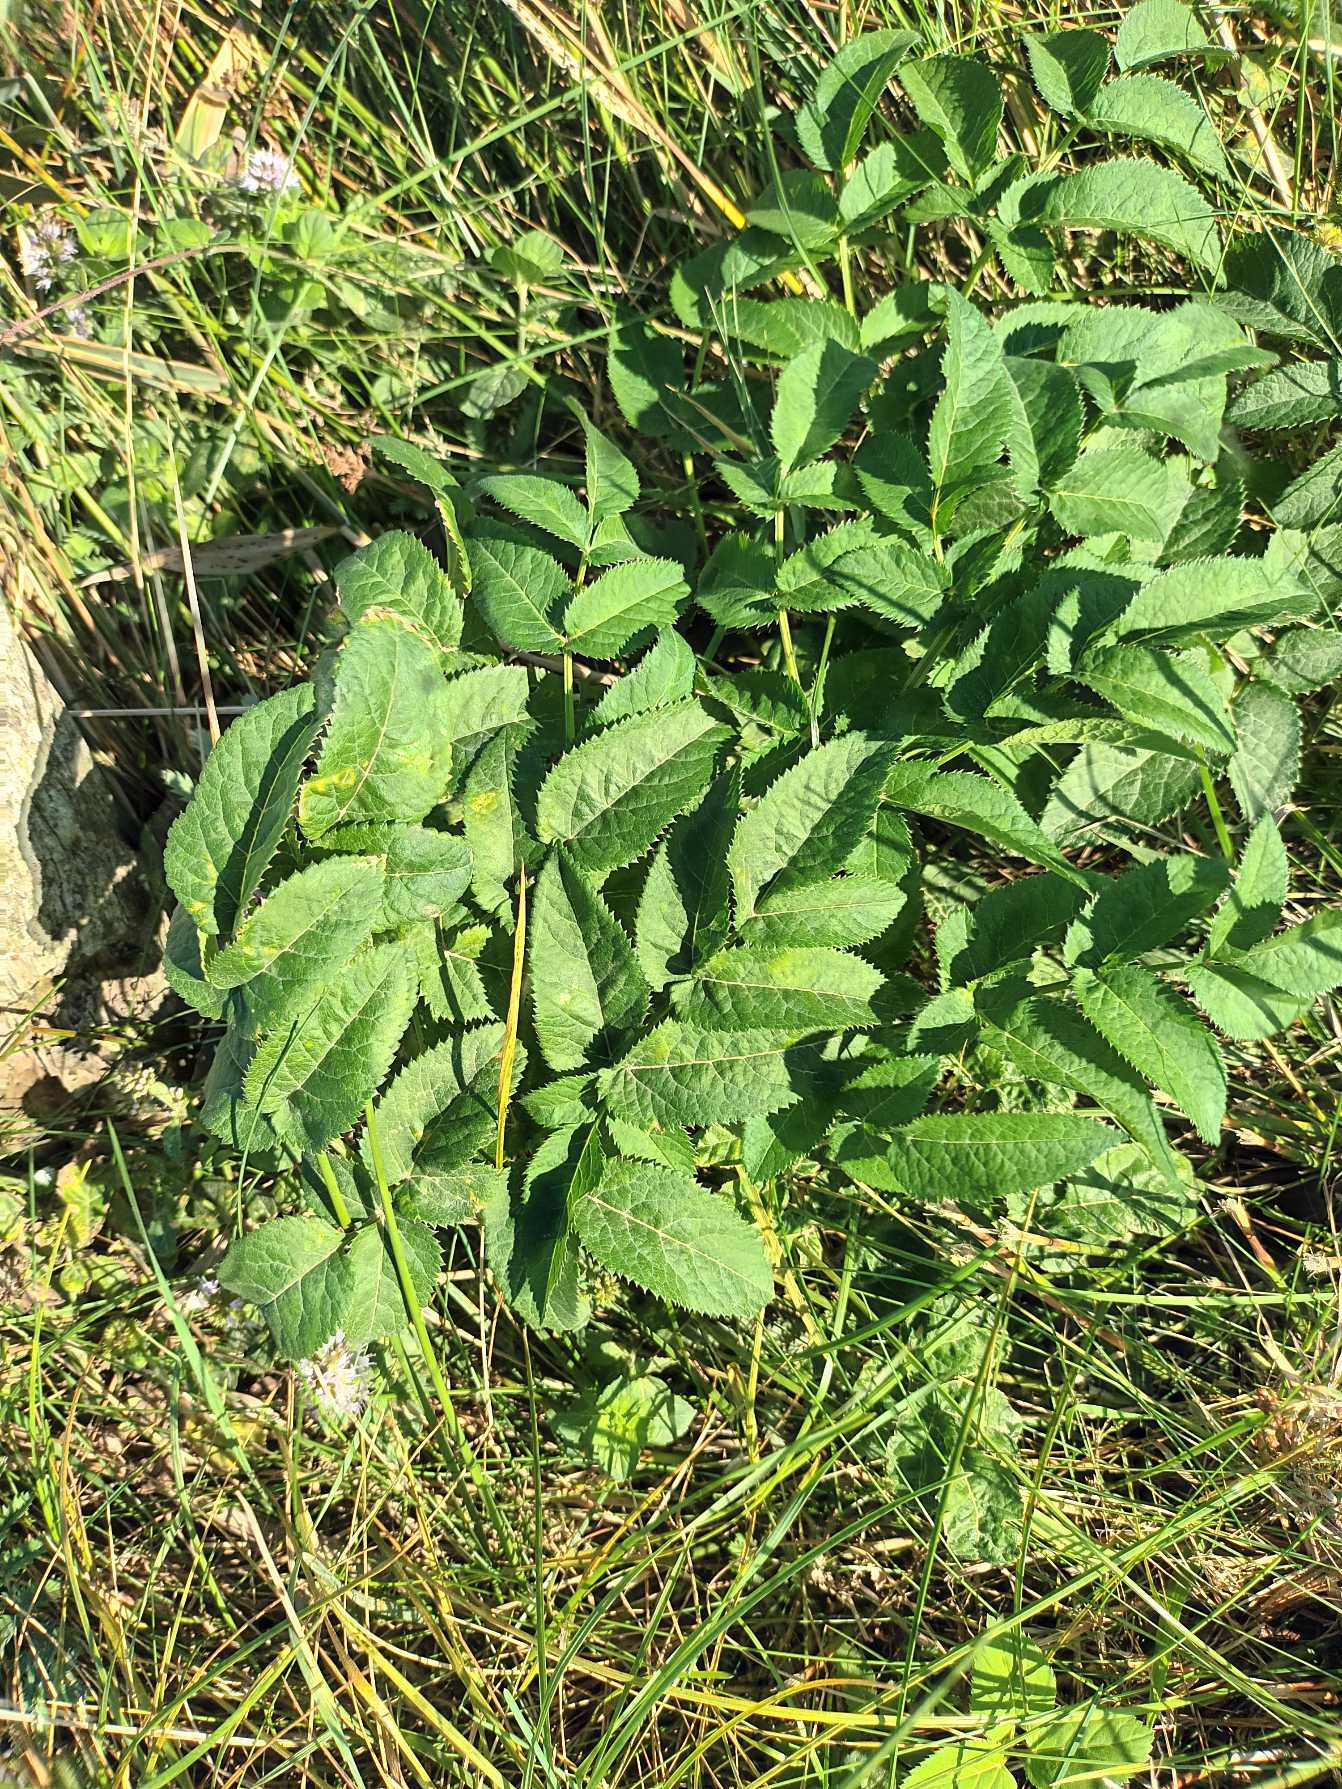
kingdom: Plantae
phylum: Tracheophyta
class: Magnoliopsida
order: Apiales
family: Apiaceae
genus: Angelica
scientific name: Angelica sylvestris
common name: Angelik
